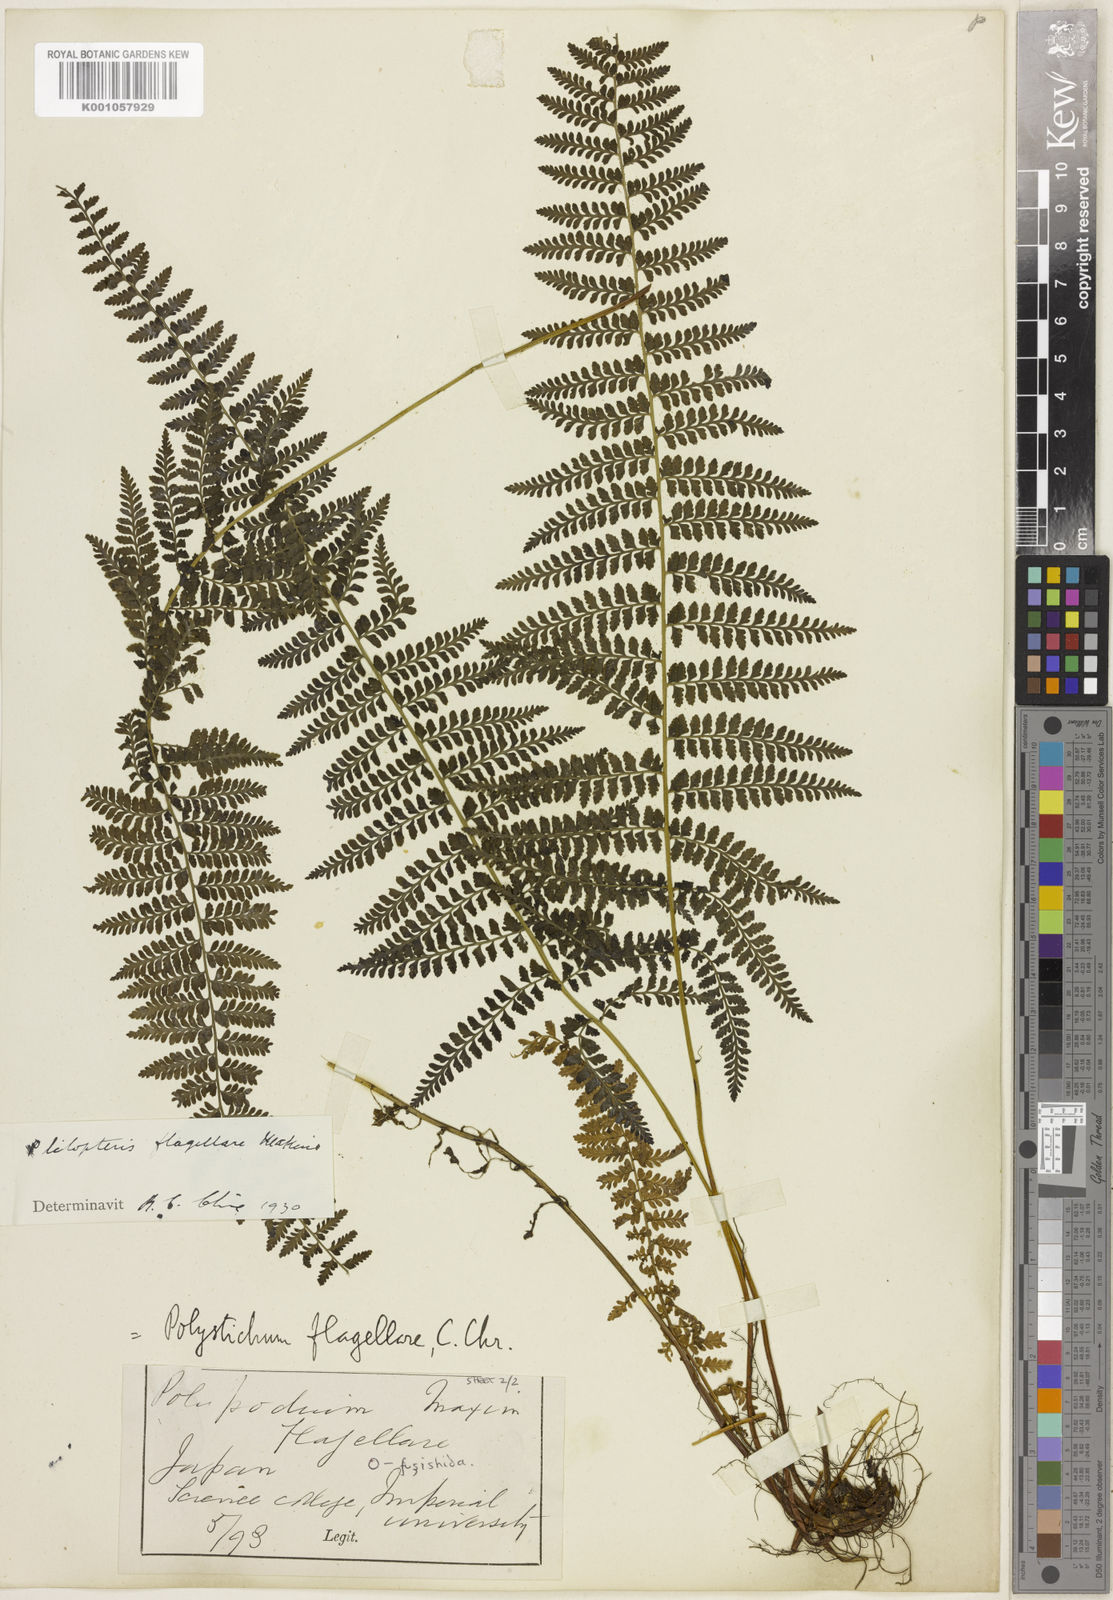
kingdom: Plantae
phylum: Tracheophyta
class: Polypodiopsida
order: Polypodiales
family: Dennstaedtiaceae
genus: Monachosorum
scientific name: Monachosorum flagellare
